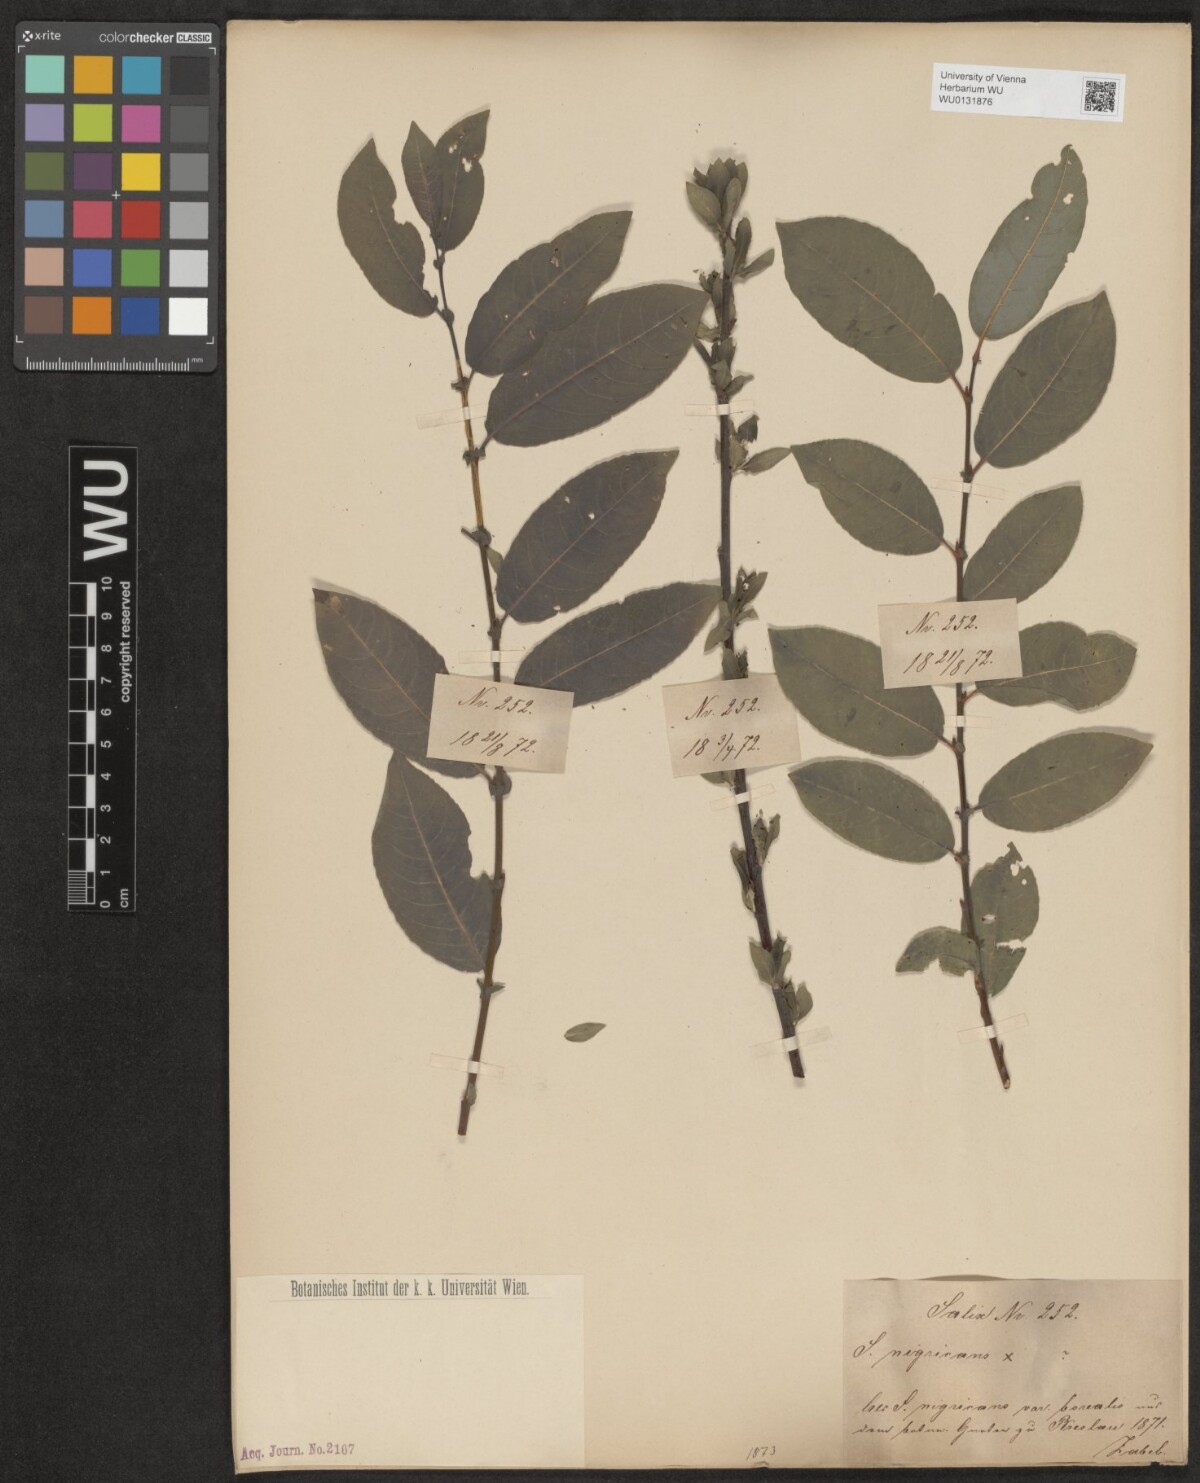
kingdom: Plantae
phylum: Tracheophyta
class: Magnoliopsida
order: Malpighiales
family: Salicaceae
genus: Salix
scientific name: Salix myrsinifolia
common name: Dark-leaved willow
